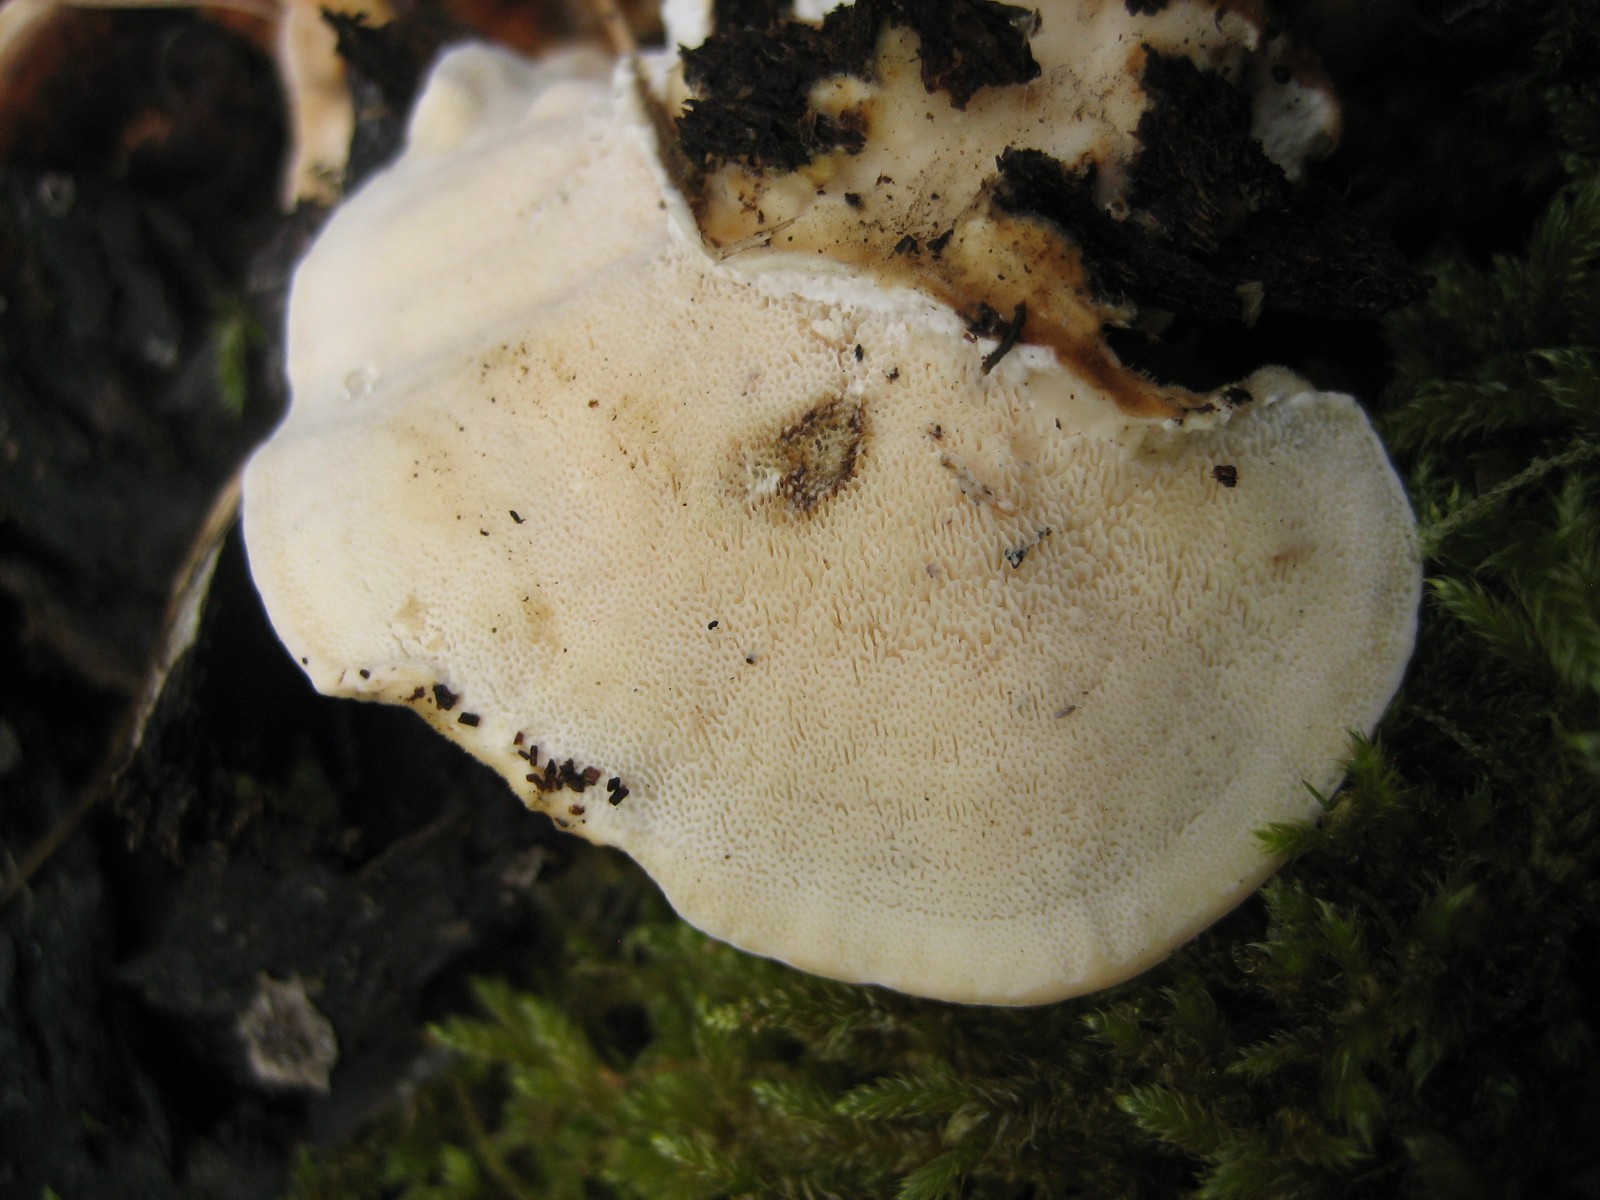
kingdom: Fungi
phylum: Basidiomycota
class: Agaricomycetes
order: Polyporales
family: Polyporaceae
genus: Trametes
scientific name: Trametes versicolor
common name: broget læderporesvamp
